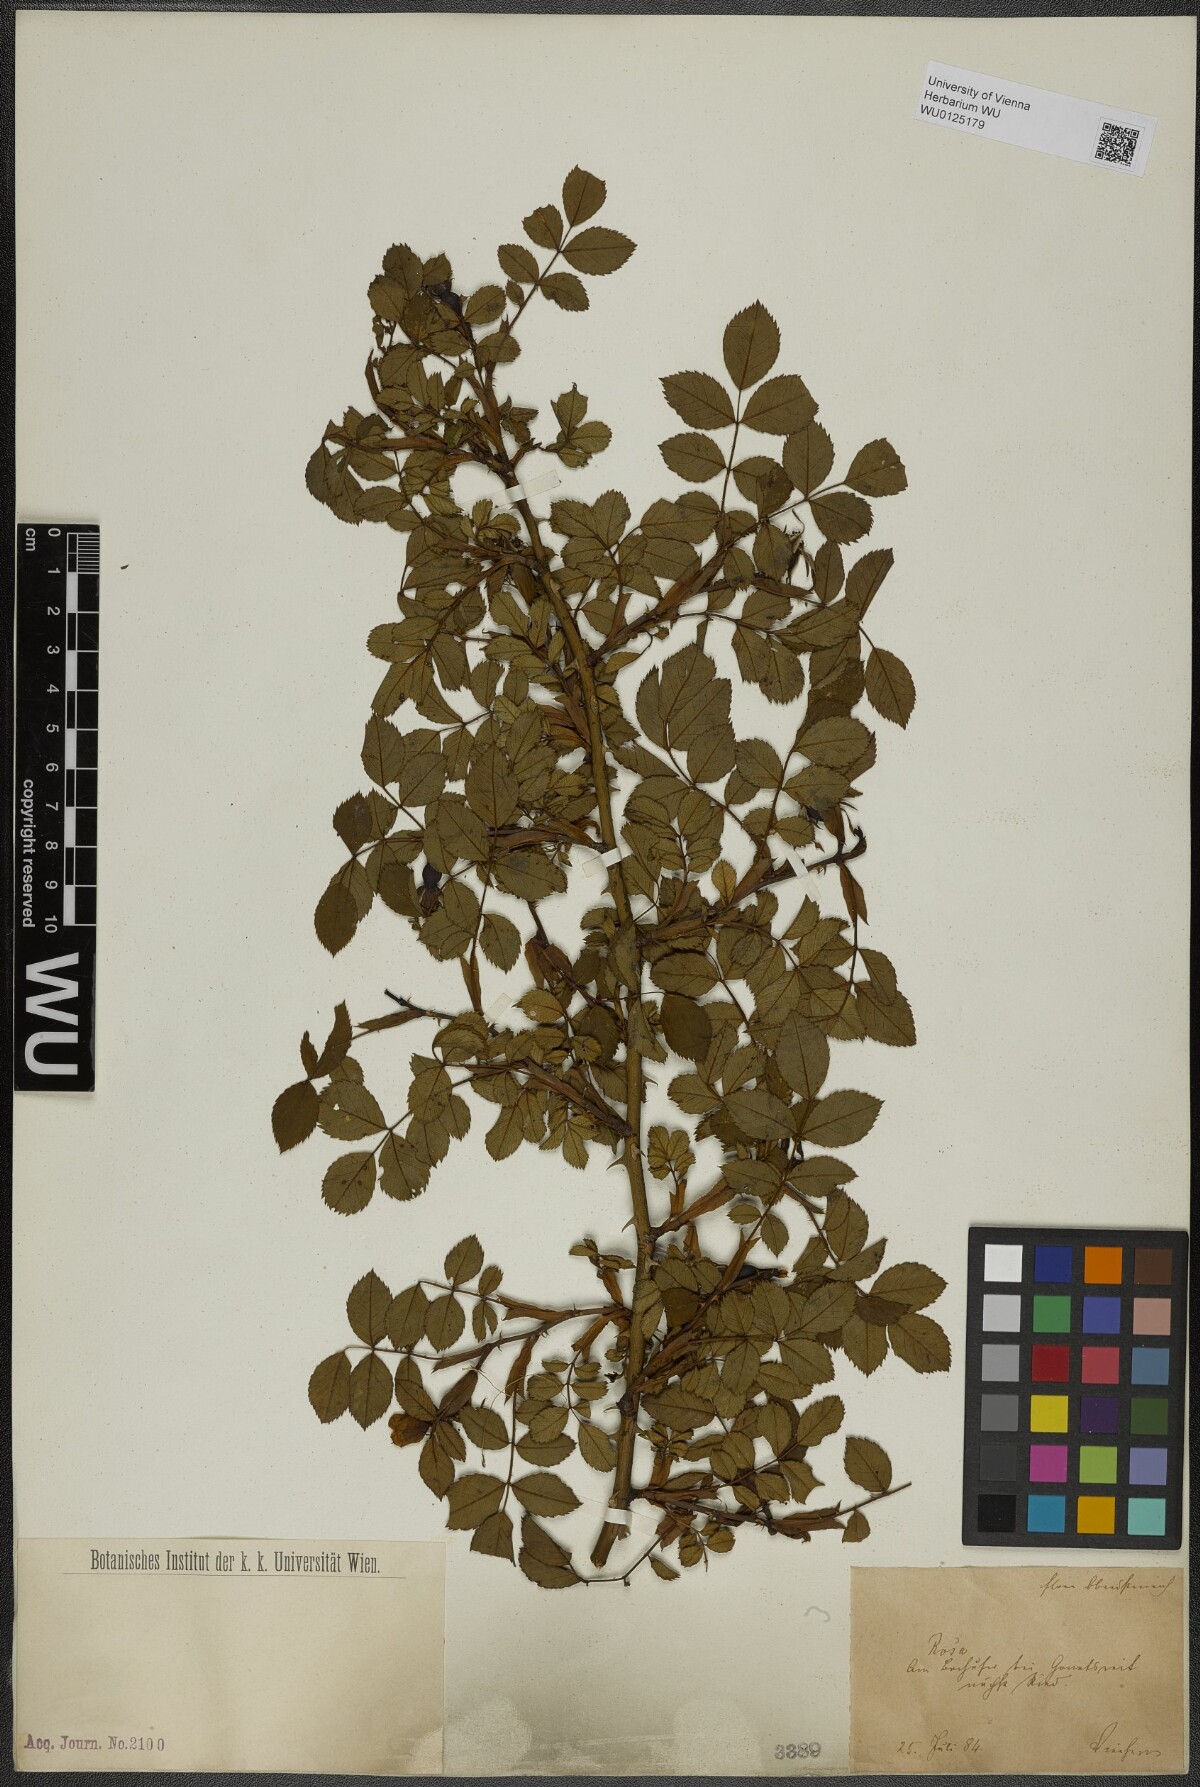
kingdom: Plantae
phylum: Tracheophyta
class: Magnoliopsida
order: Rosales
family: Rosaceae
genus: Rosa
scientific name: Rosa
